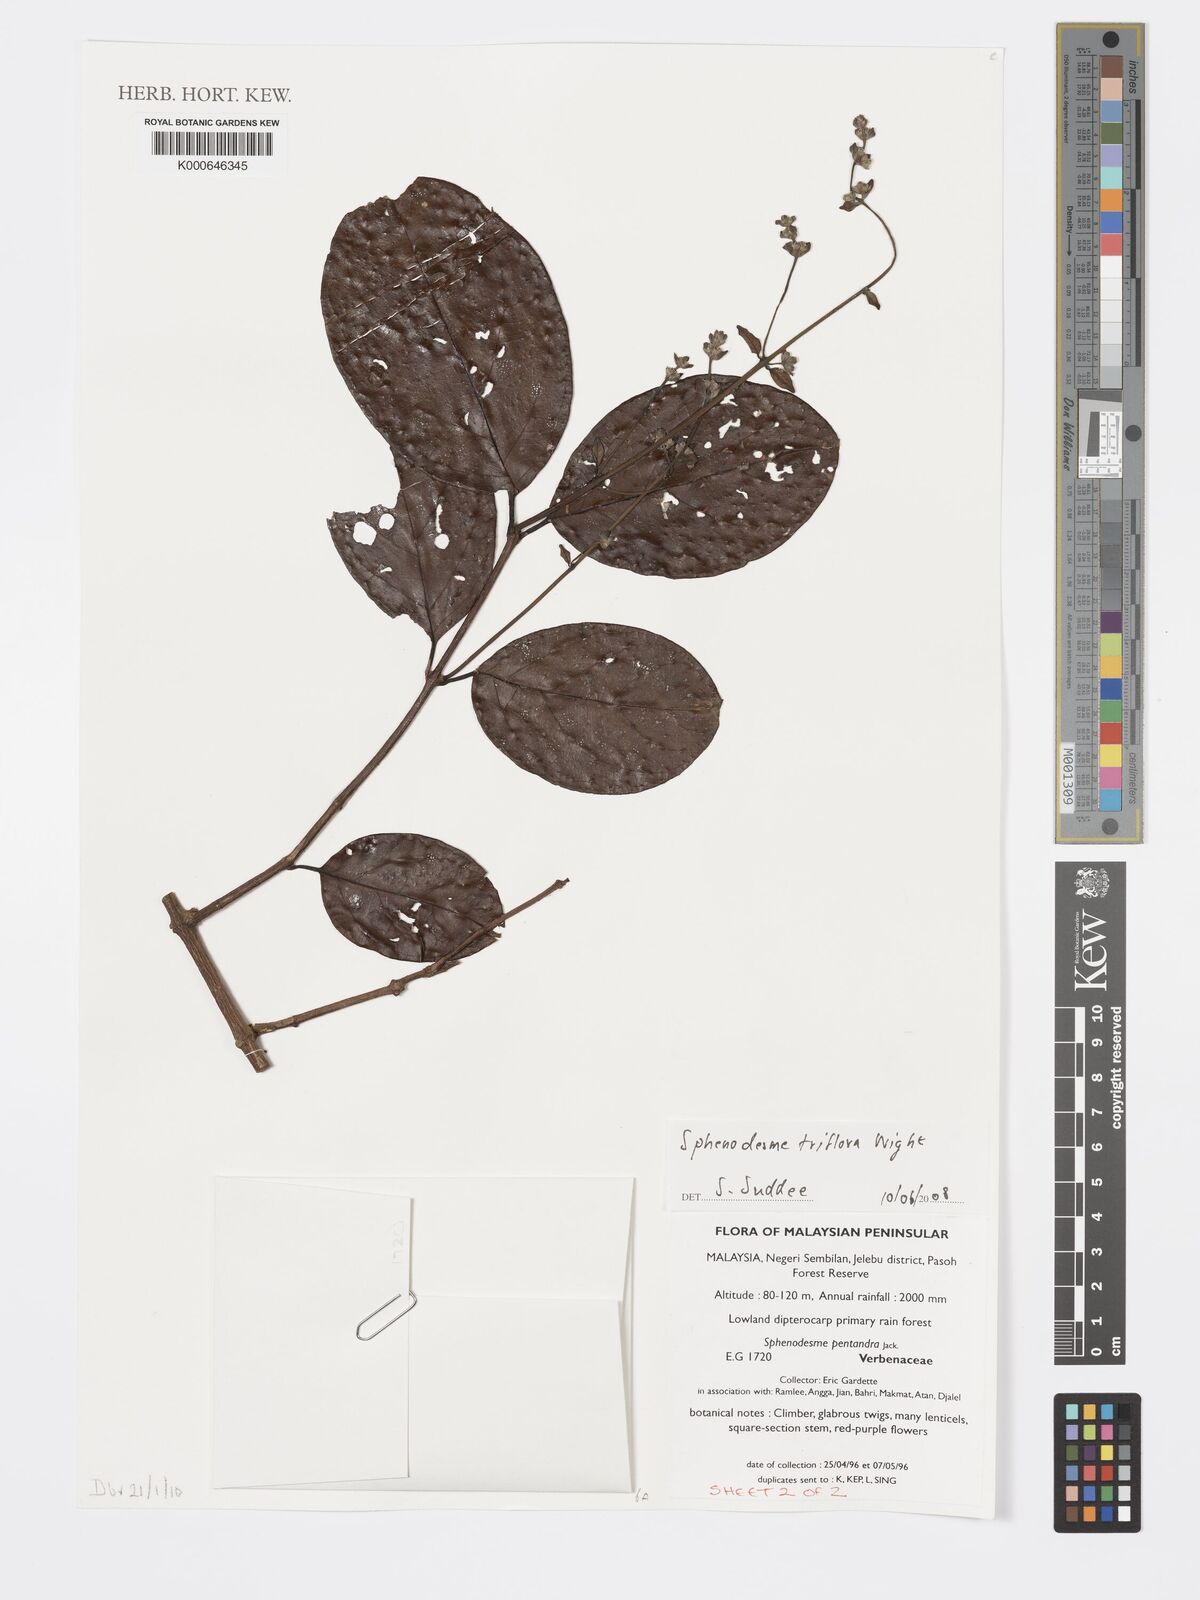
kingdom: Plantae
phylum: Tracheophyta
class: Magnoliopsida
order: Lamiales
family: Lamiaceae
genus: Sphenodesme
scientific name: Sphenodesme
